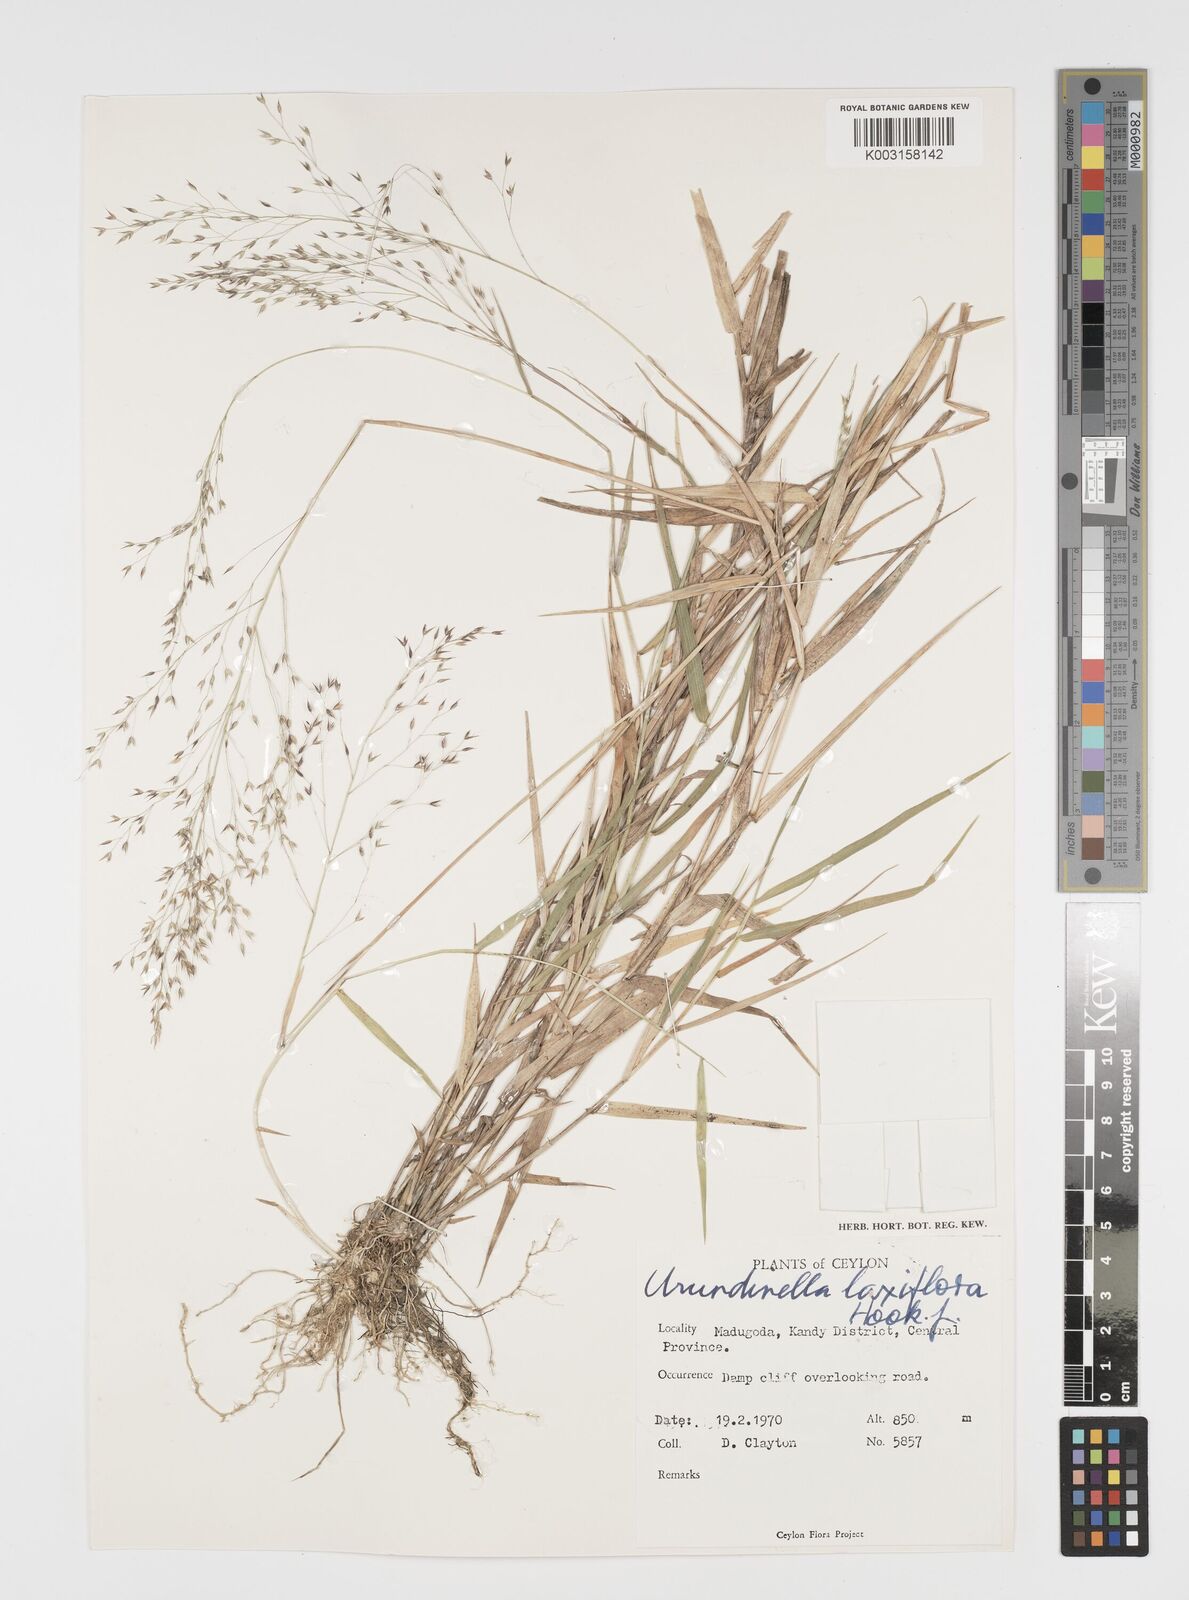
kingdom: Plantae
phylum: Tracheophyta
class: Liliopsida
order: Poales
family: Poaceae
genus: Arundinella
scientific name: Arundinella laxiflora
